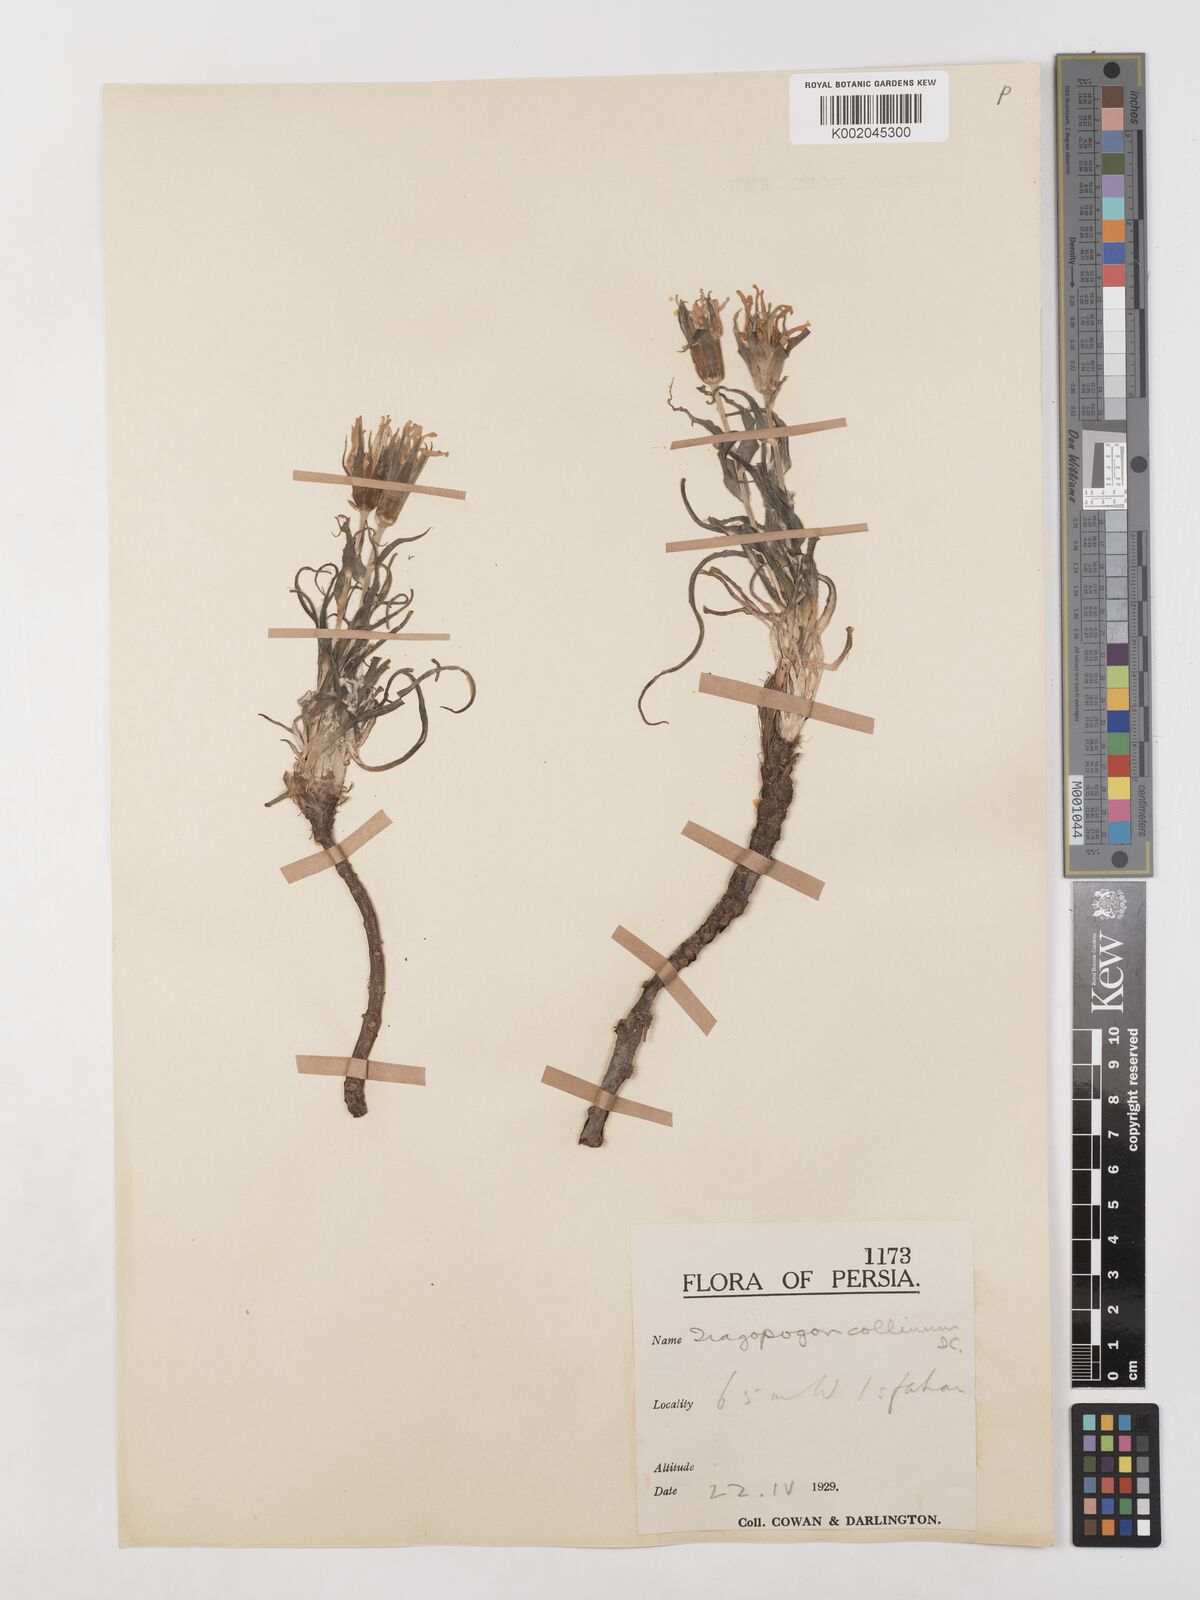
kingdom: Plantae
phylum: Tracheophyta
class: Magnoliopsida
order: Asterales
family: Asteraceae
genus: Tragopogon
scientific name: Tragopogon collinus
